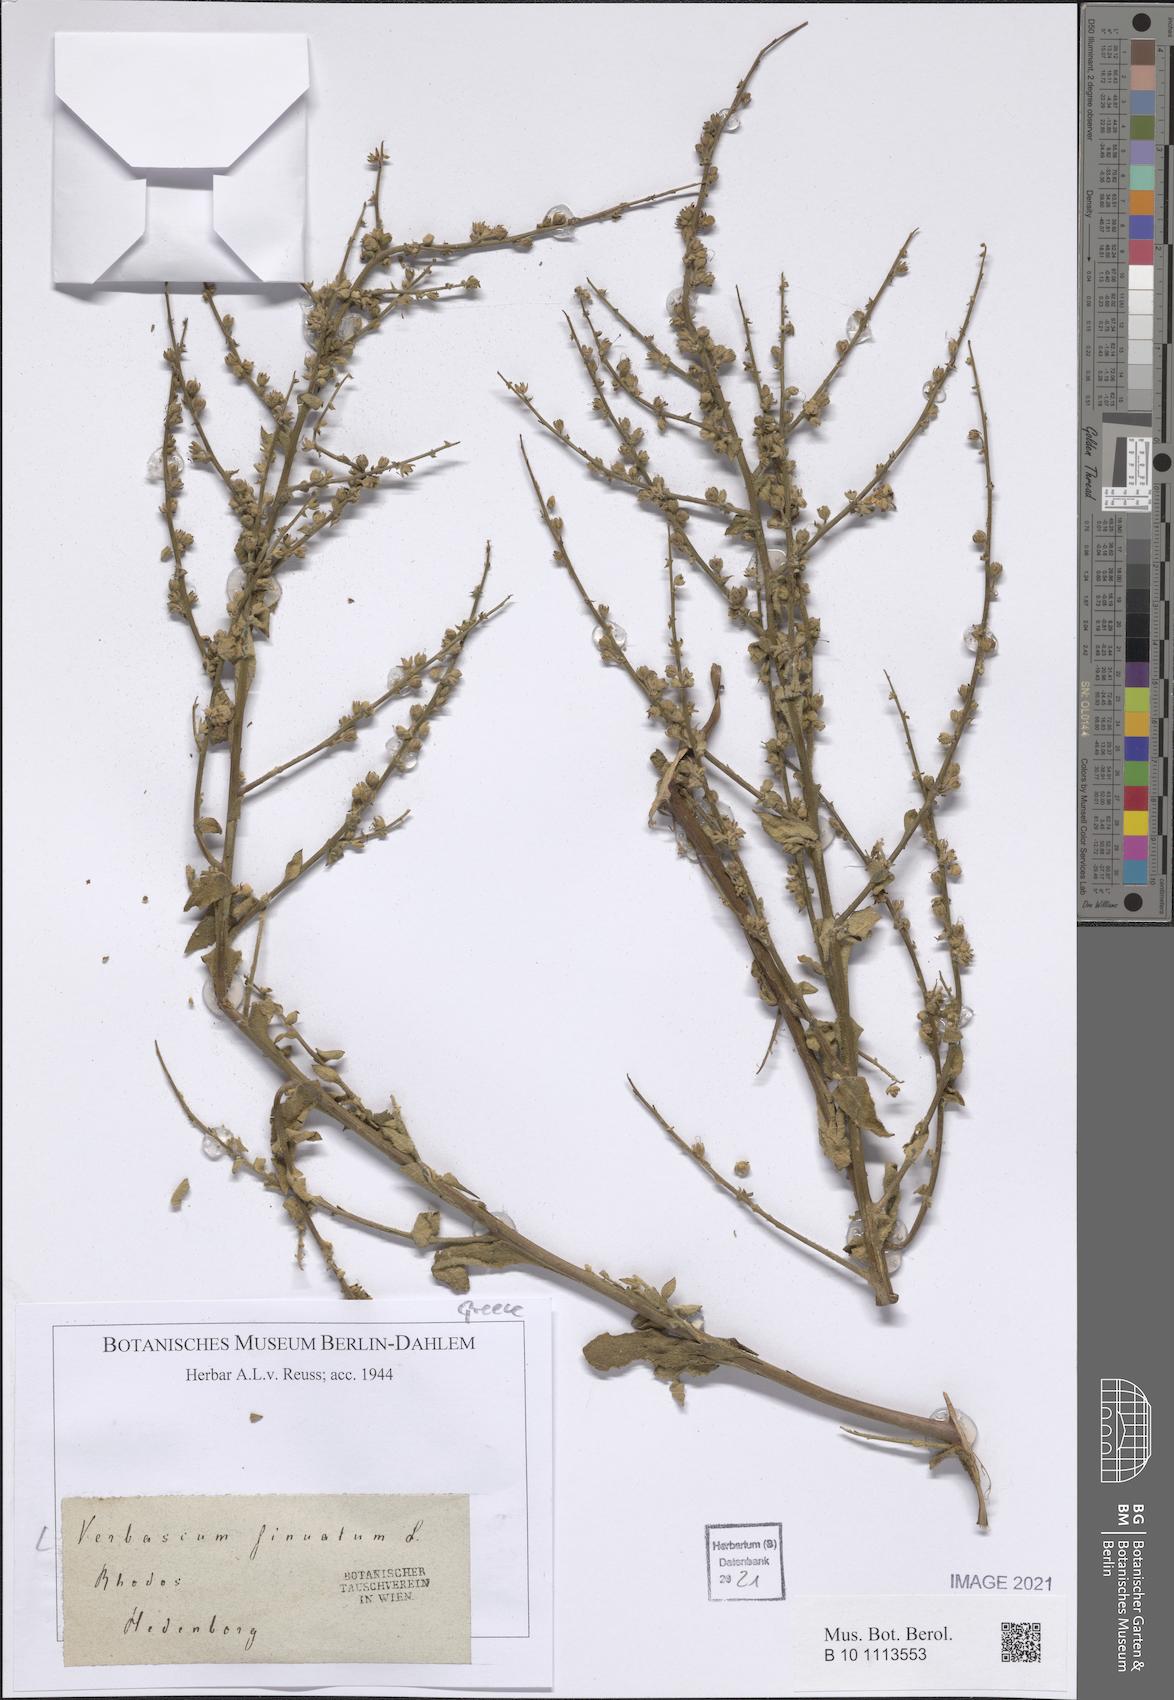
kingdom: Plantae
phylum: Tracheophyta
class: Magnoliopsida
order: Lamiales
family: Scrophulariaceae
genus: Verbascum
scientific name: Verbascum sinuatum
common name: Wavyleaf mullein
